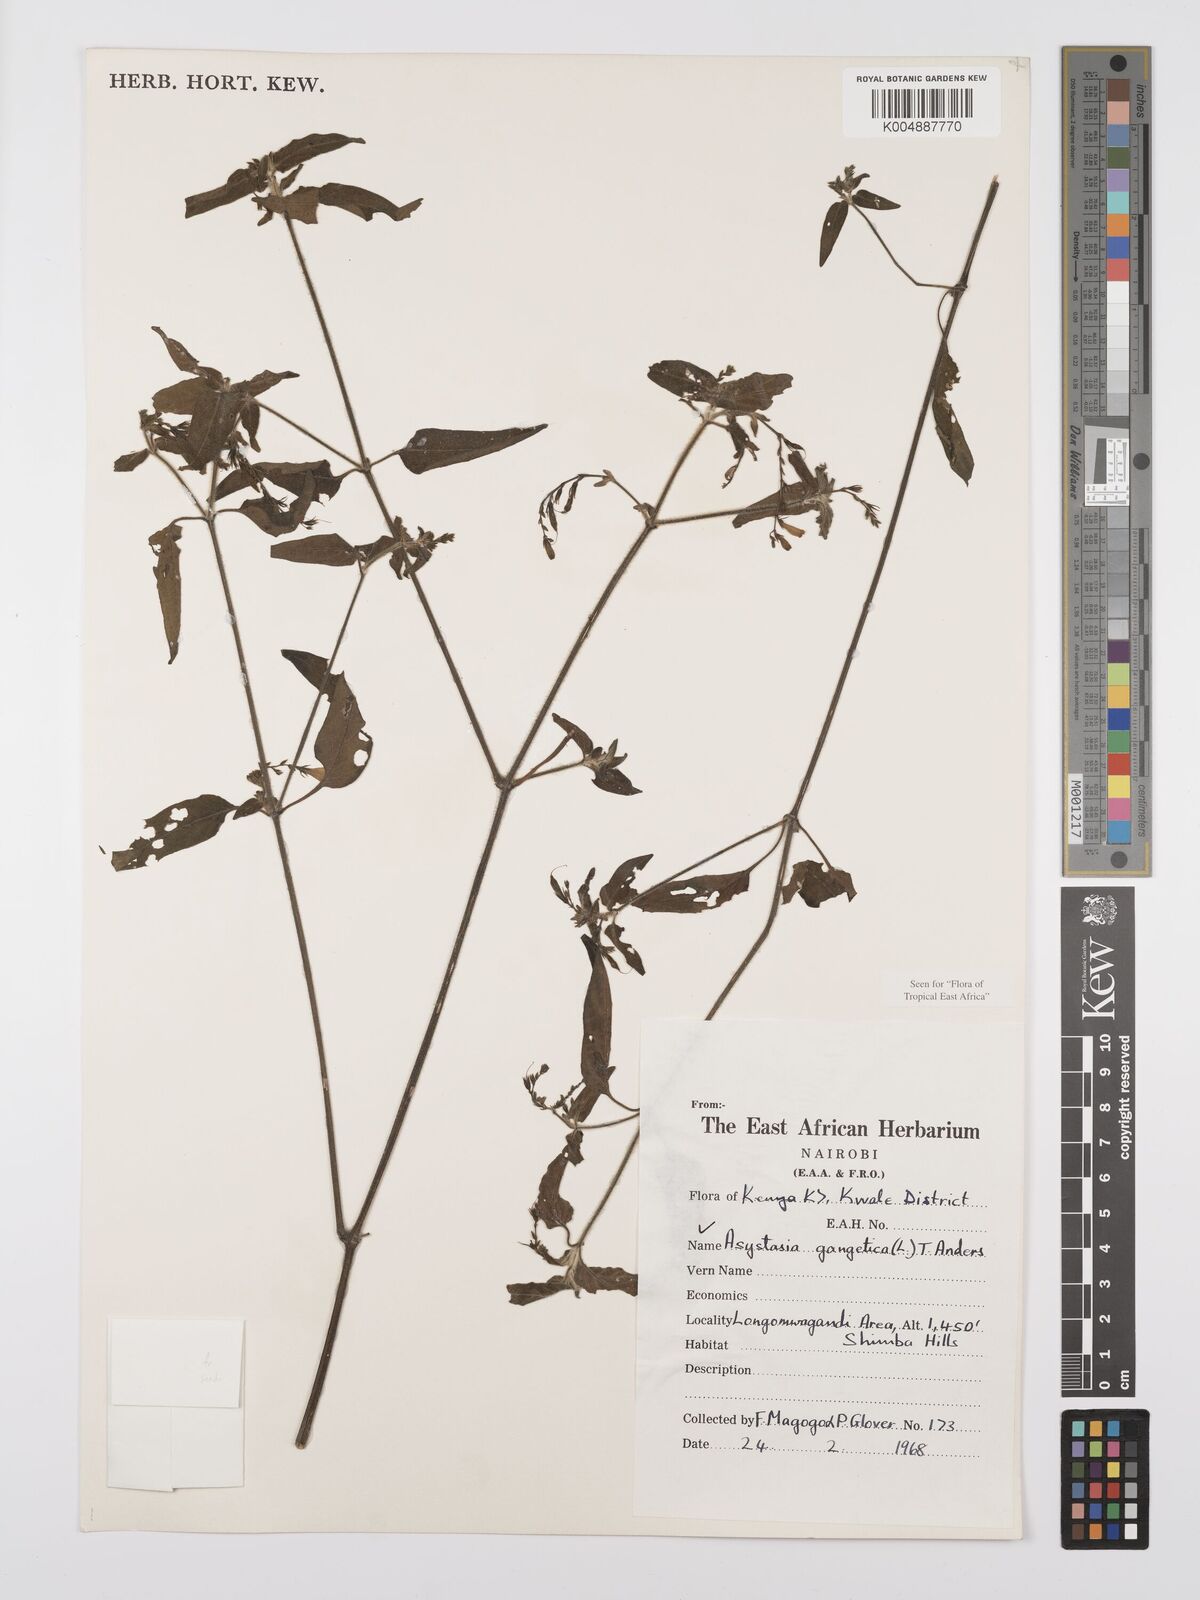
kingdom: Plantae
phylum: Tracheophyta
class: Magnoliopsida
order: Lamiales
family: Acanthaceae
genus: Asystasia
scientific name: Asystasia gangetica
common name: Chinese violet
